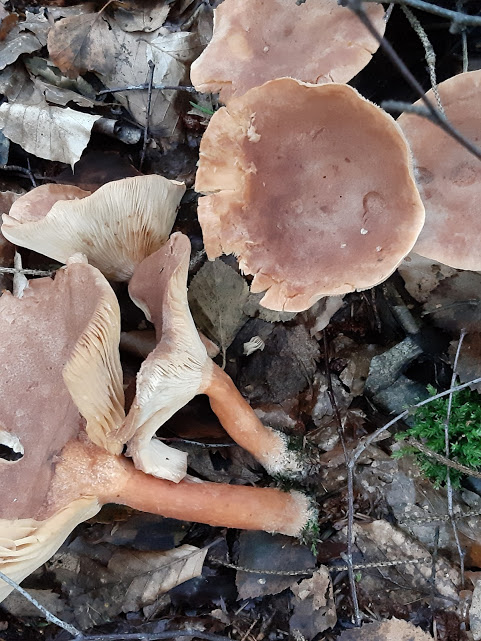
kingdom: Fungi
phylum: Basidiomycota
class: Agaricomycetes
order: Russulales
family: Russulaceae
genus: Lactarius
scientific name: Lactarius helvus
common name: mose-mælkehat
